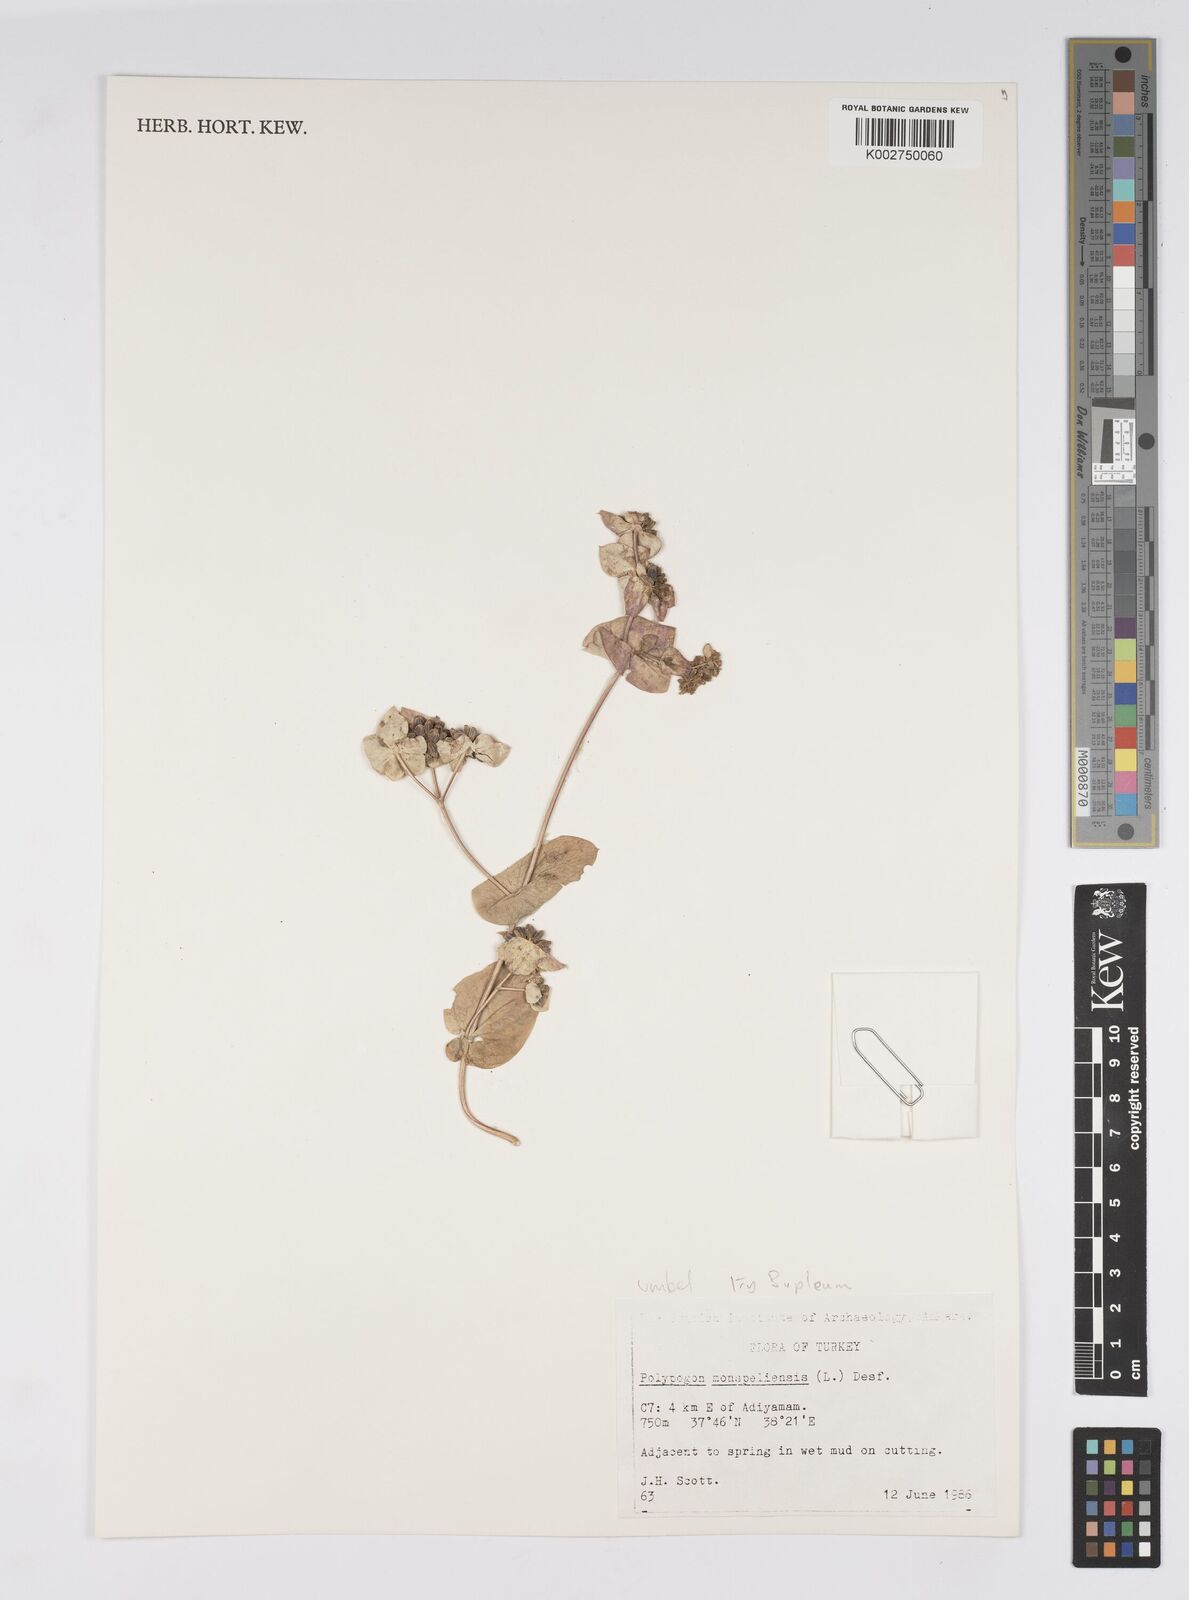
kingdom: Plantae
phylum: Tracheophyta
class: Magnoliopsida
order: Apiales
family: Apiaceae
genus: Bupleurum
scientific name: Bupleurum
